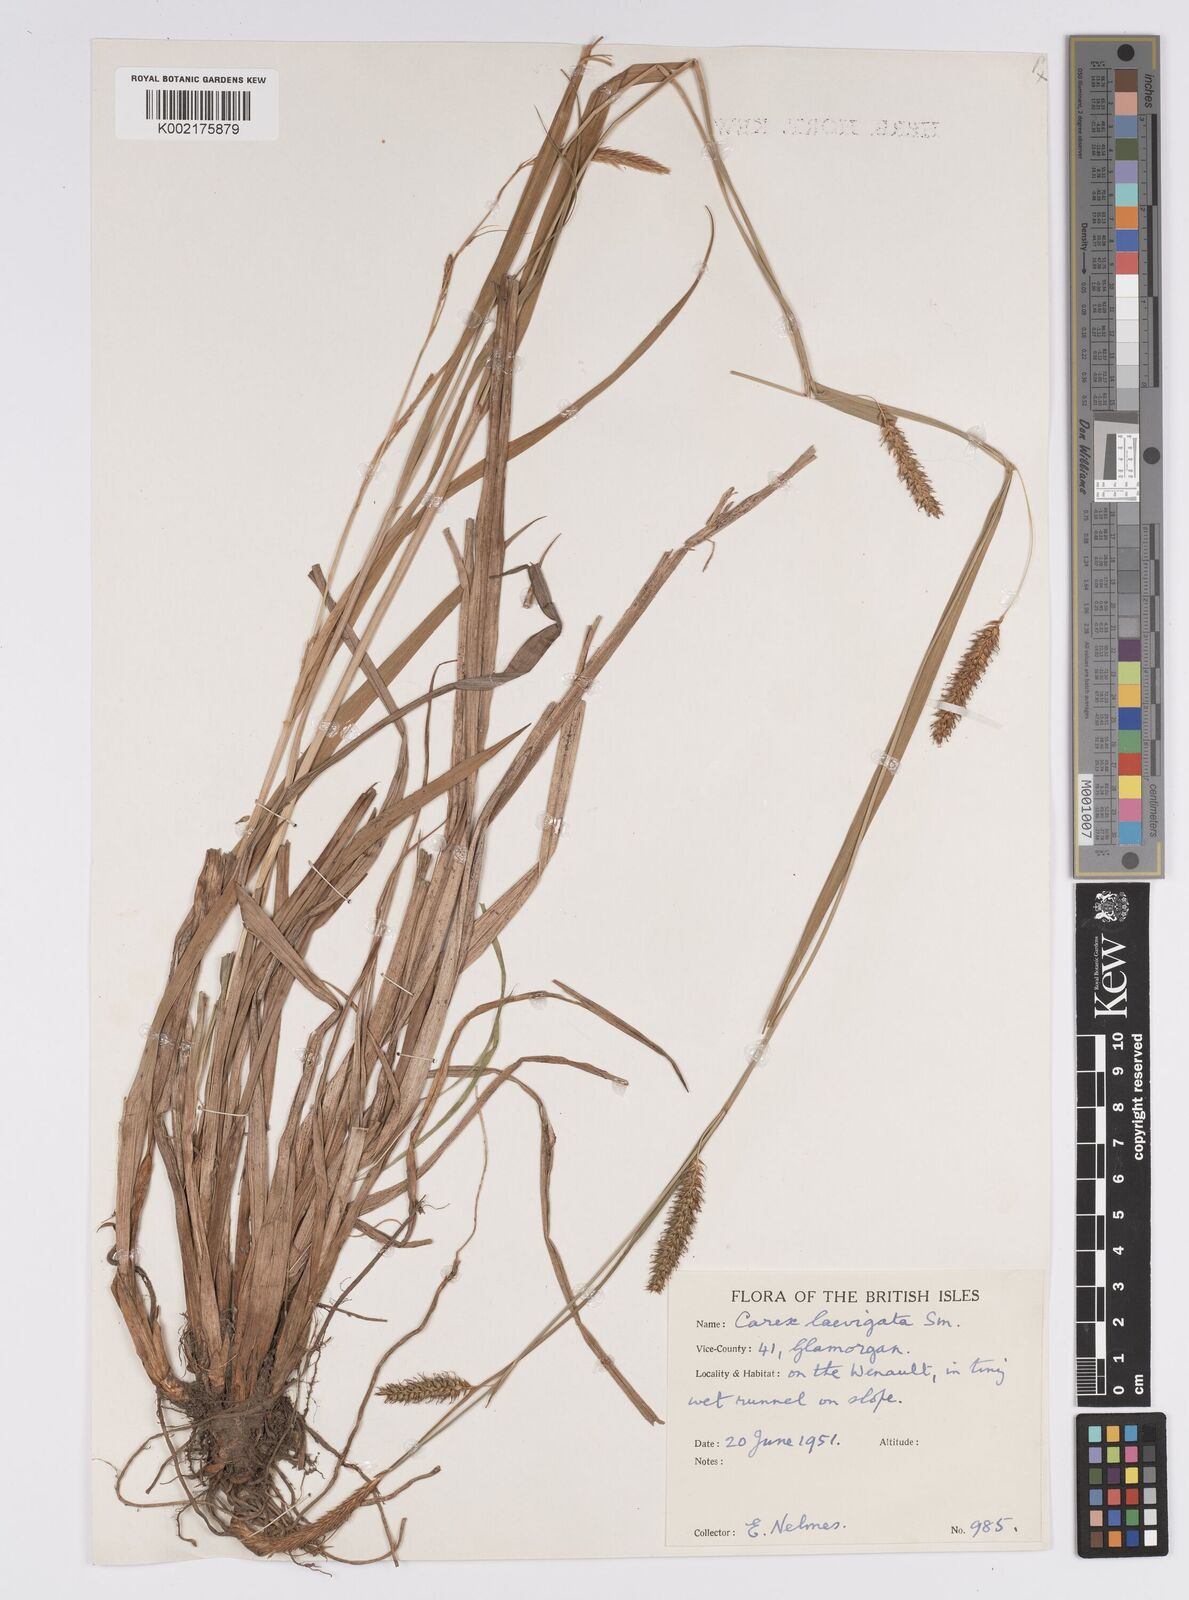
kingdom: Plantae
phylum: Tracheophyta
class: Liliopsida
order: Poales
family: Cyperaceae
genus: Carex
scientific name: Carex laevigata
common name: Smooth-stalked sedge
